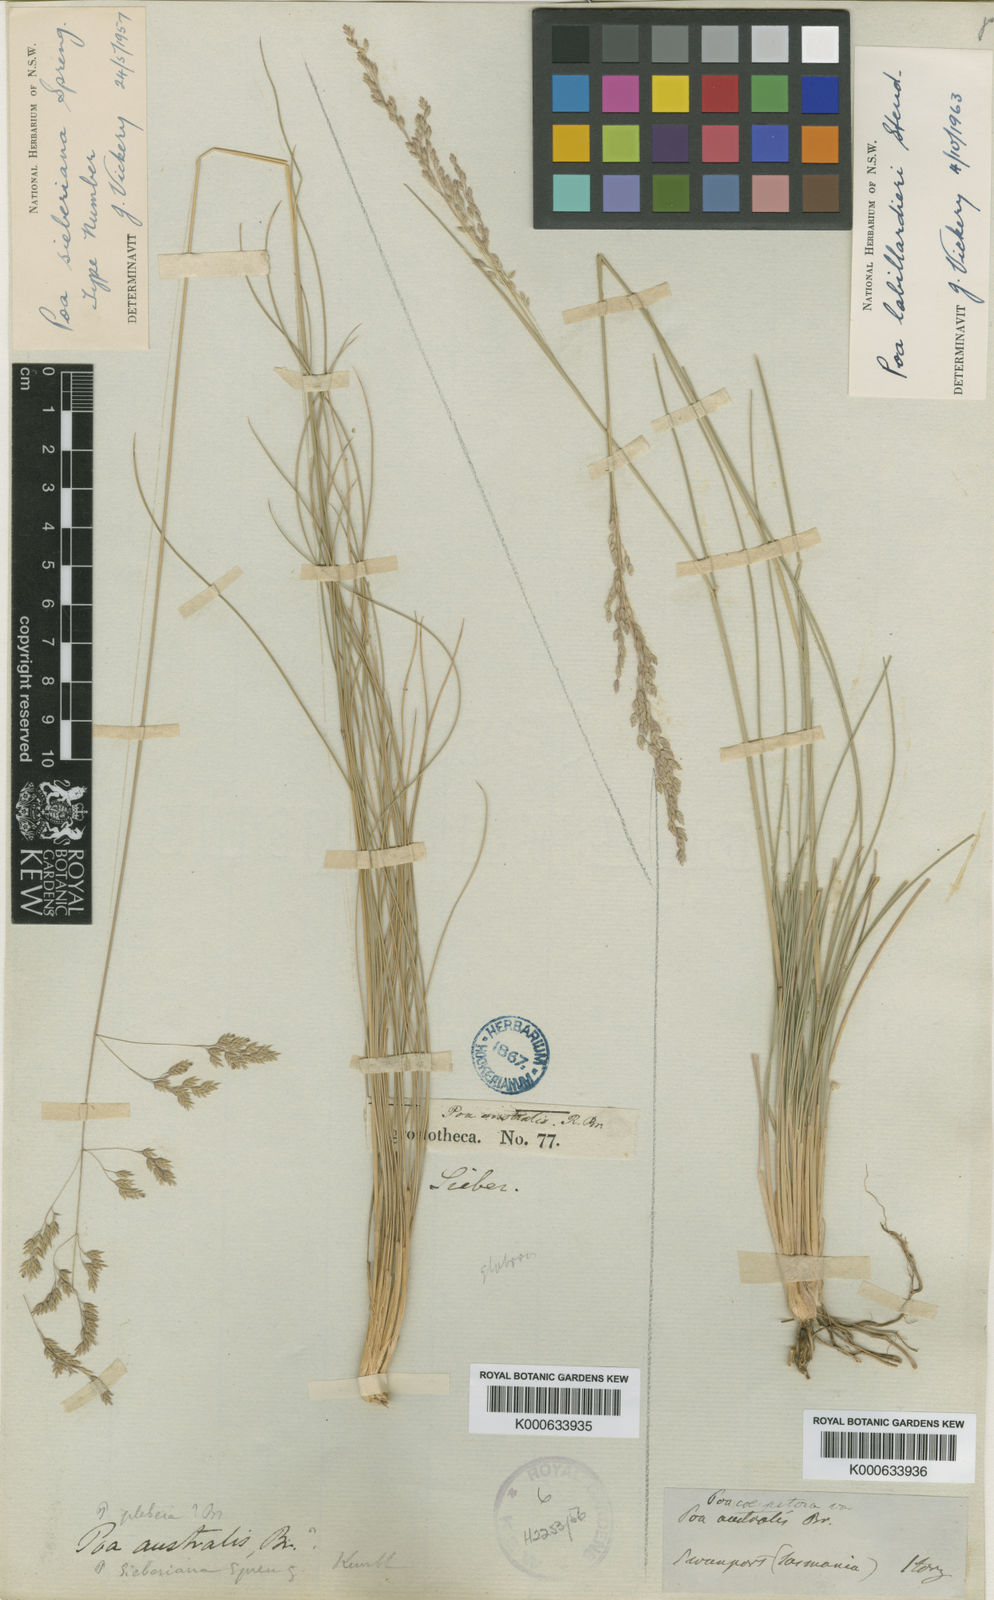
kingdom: Plantae
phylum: Tracheophyta
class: Liliopsida
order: Poales
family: Poaceae
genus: Poa
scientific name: Poa sieberiana
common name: Tussock poa
